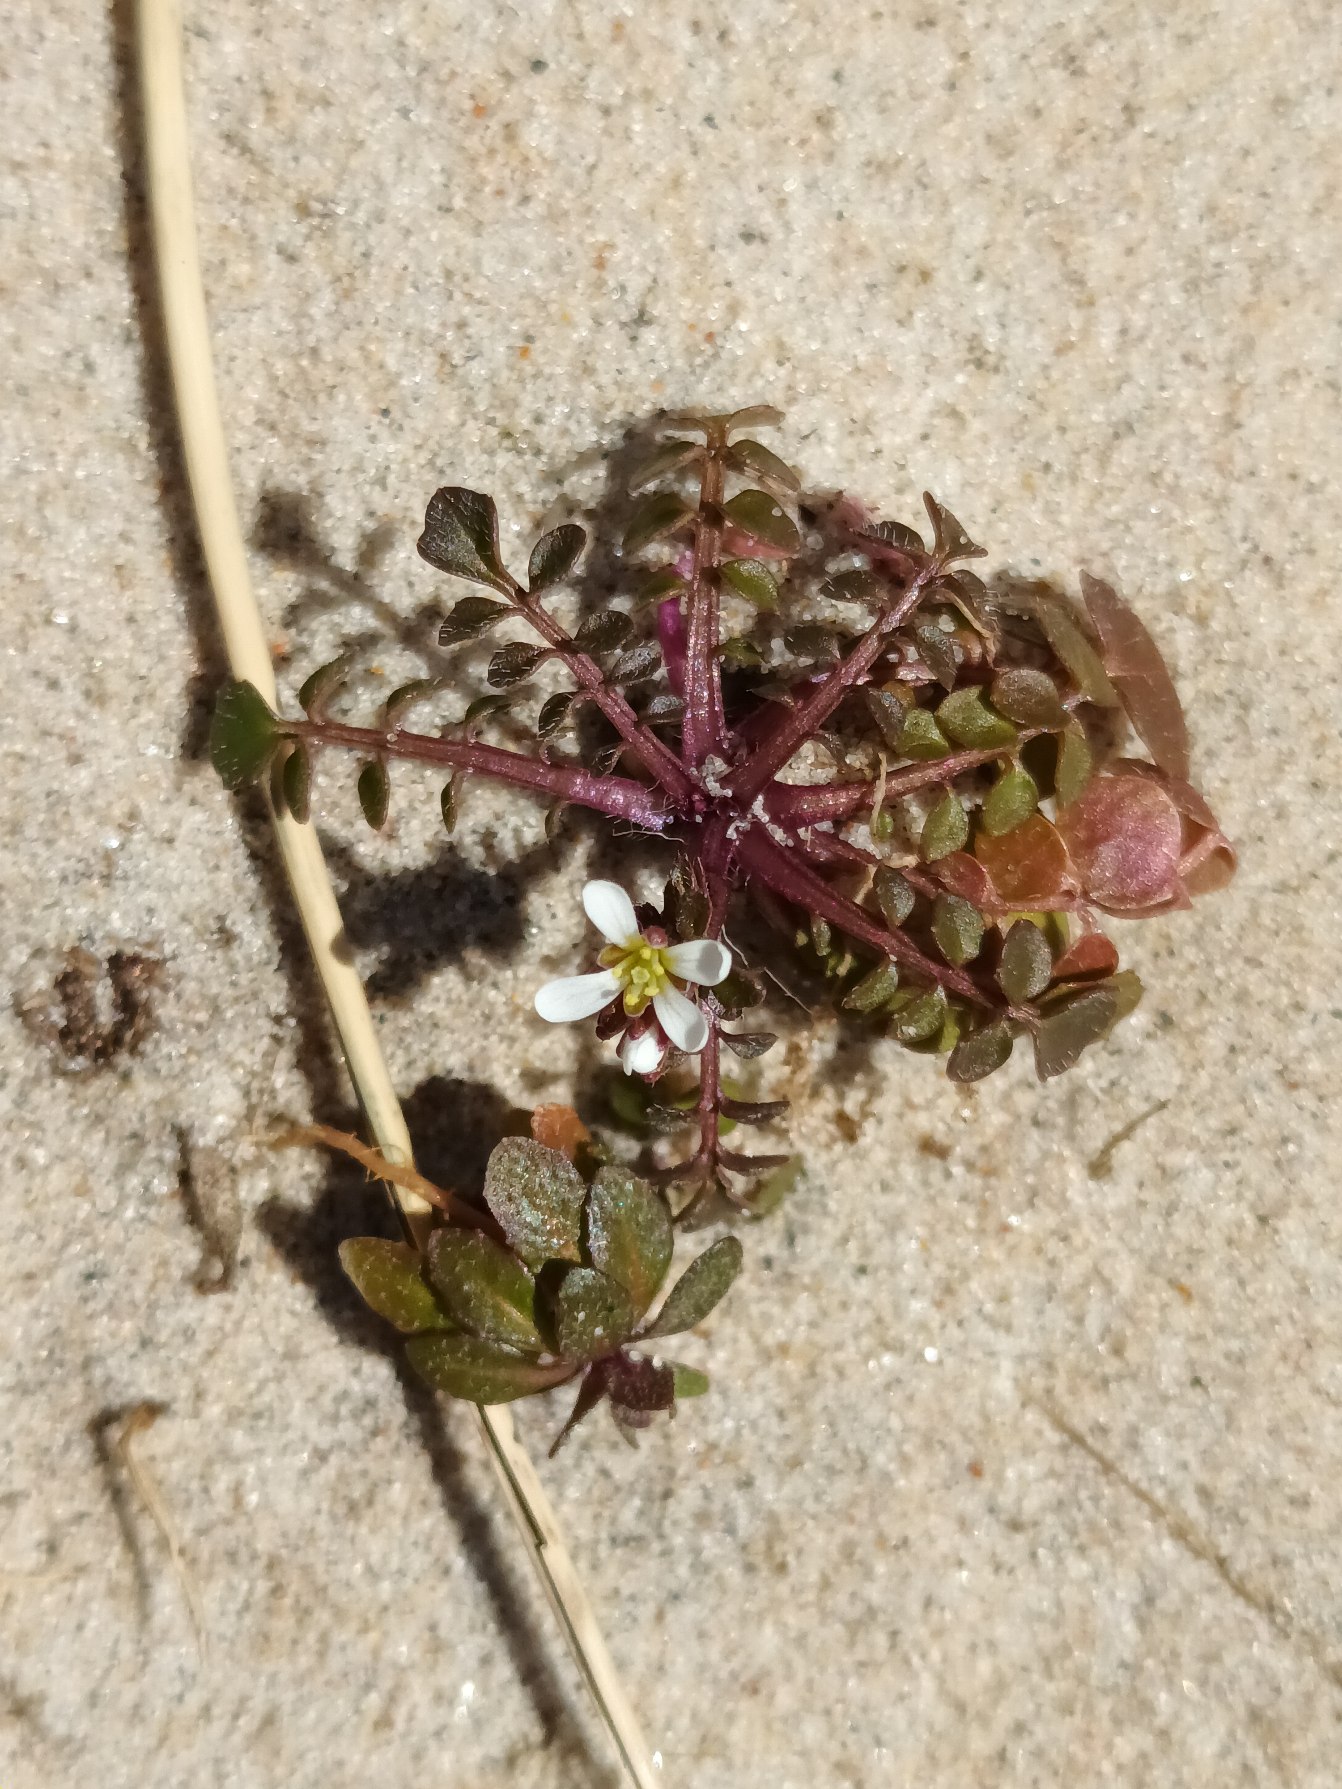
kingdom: Plantae
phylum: Tracheophyta
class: Magnoliopsida
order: Brassicales
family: Brassicaceae
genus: Cardamine
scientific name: Cardamine hirsuta
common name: Roset-springklap
